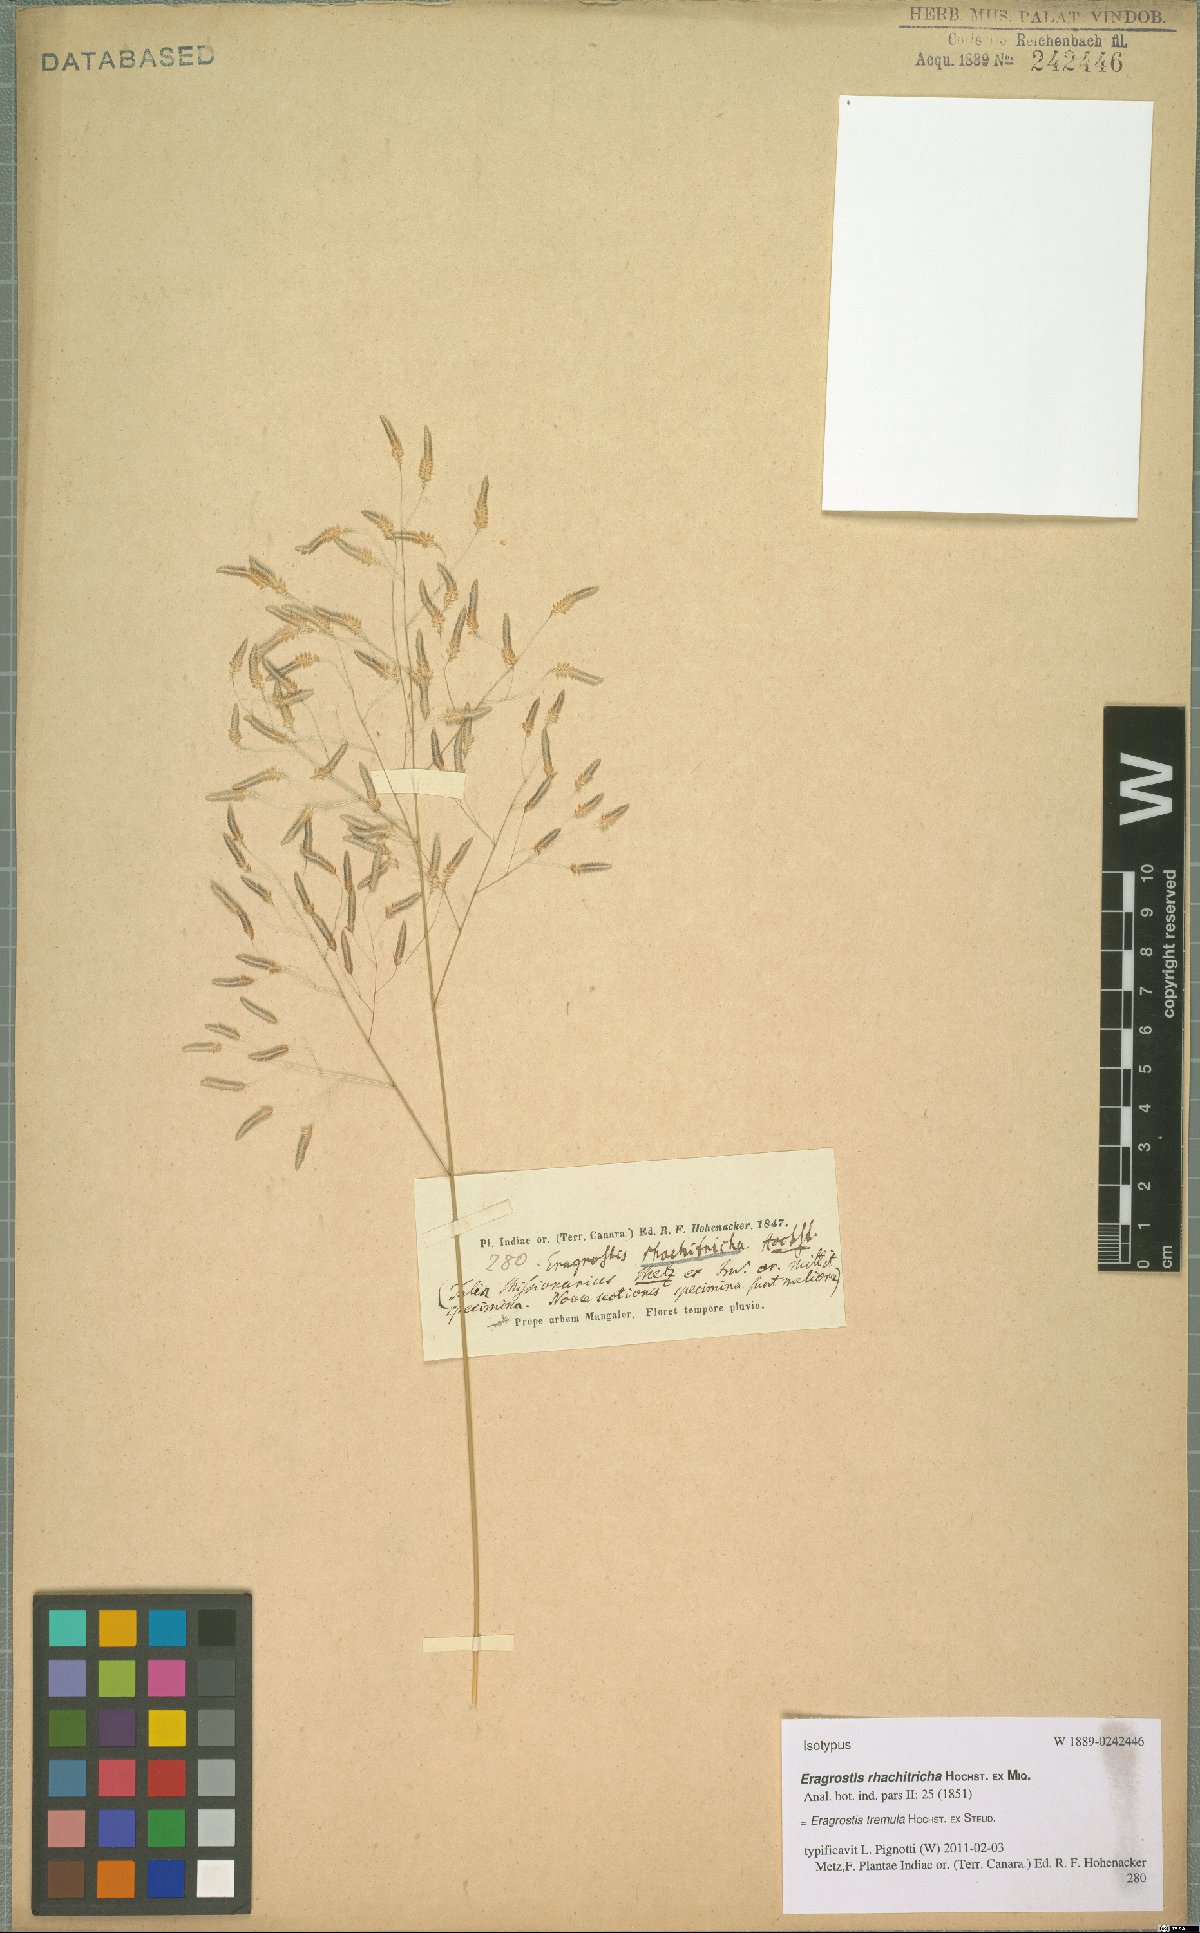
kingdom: Plantae
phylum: Tracheophyta
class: Liliopsida
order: Poales
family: Poaceae
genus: Eragrostis
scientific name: Eragrostis tremula
